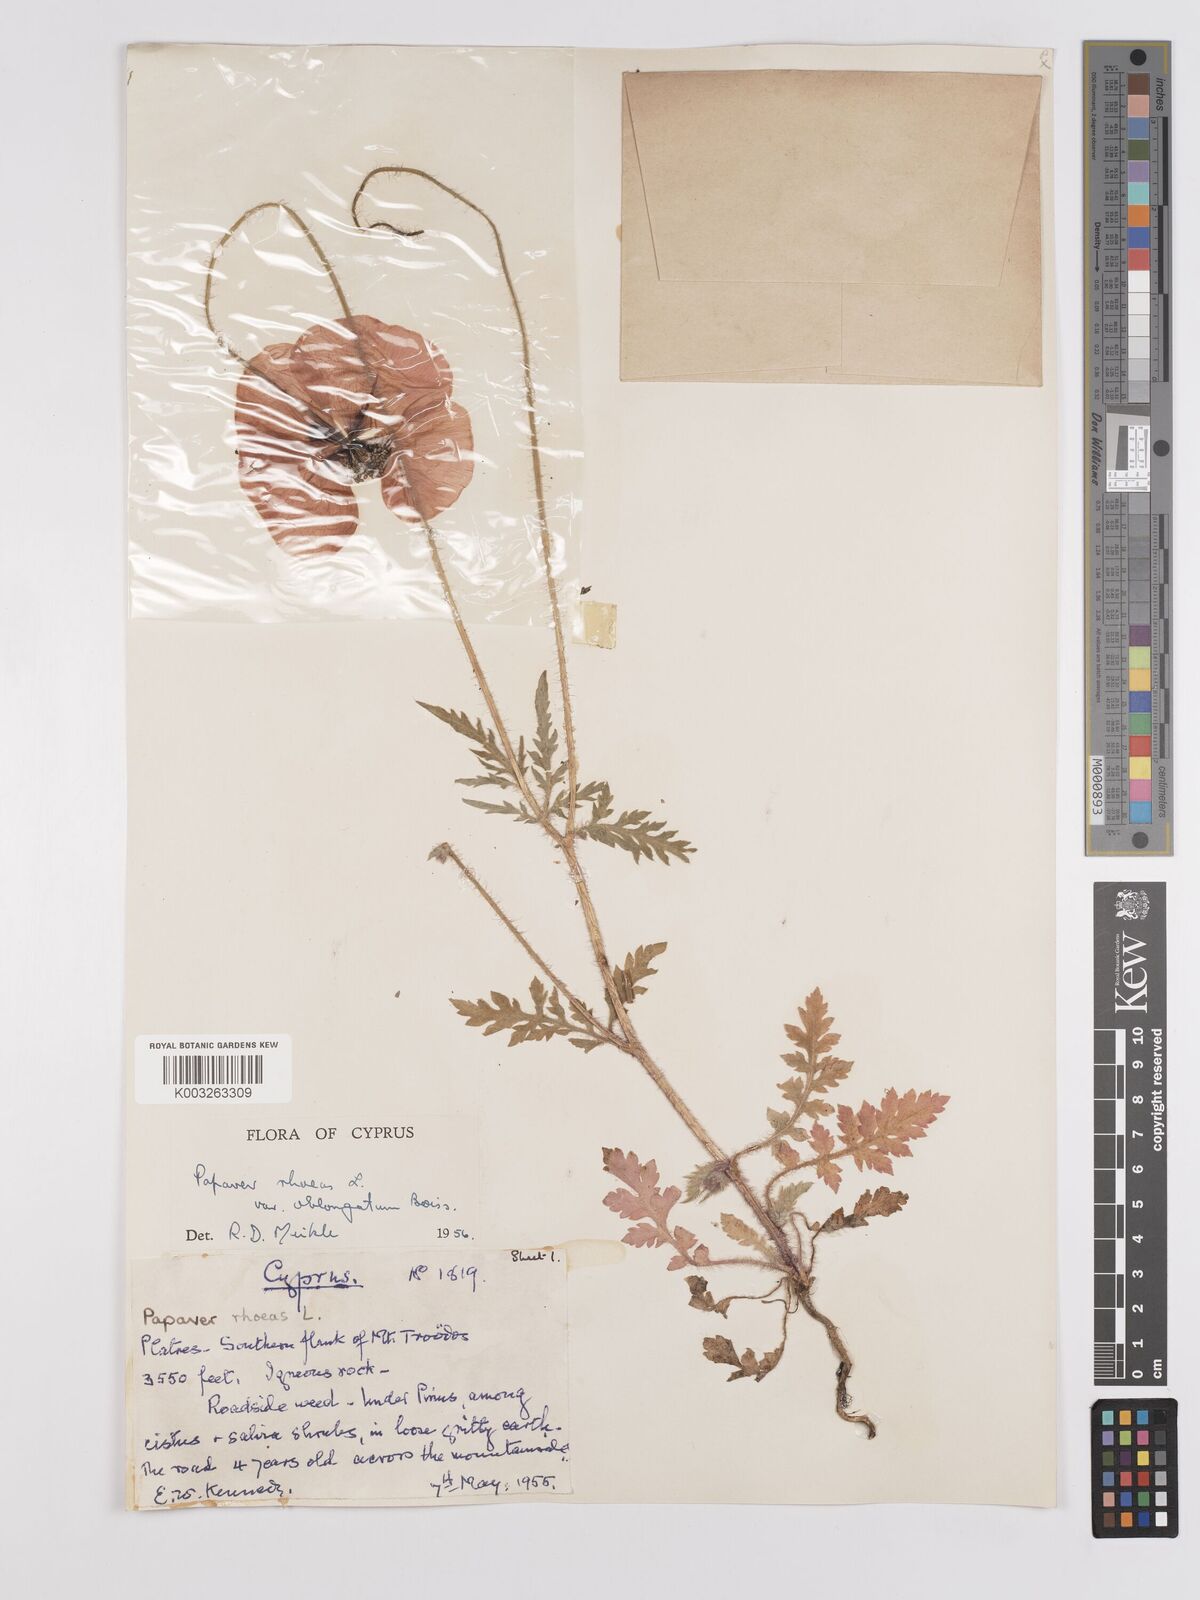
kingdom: Plantae
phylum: Tracheophyta
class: Magnoliopsida
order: Ranunculales
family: Papaveraceae
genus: Papaver
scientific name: Papaver rhoeas
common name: Corn poppy
